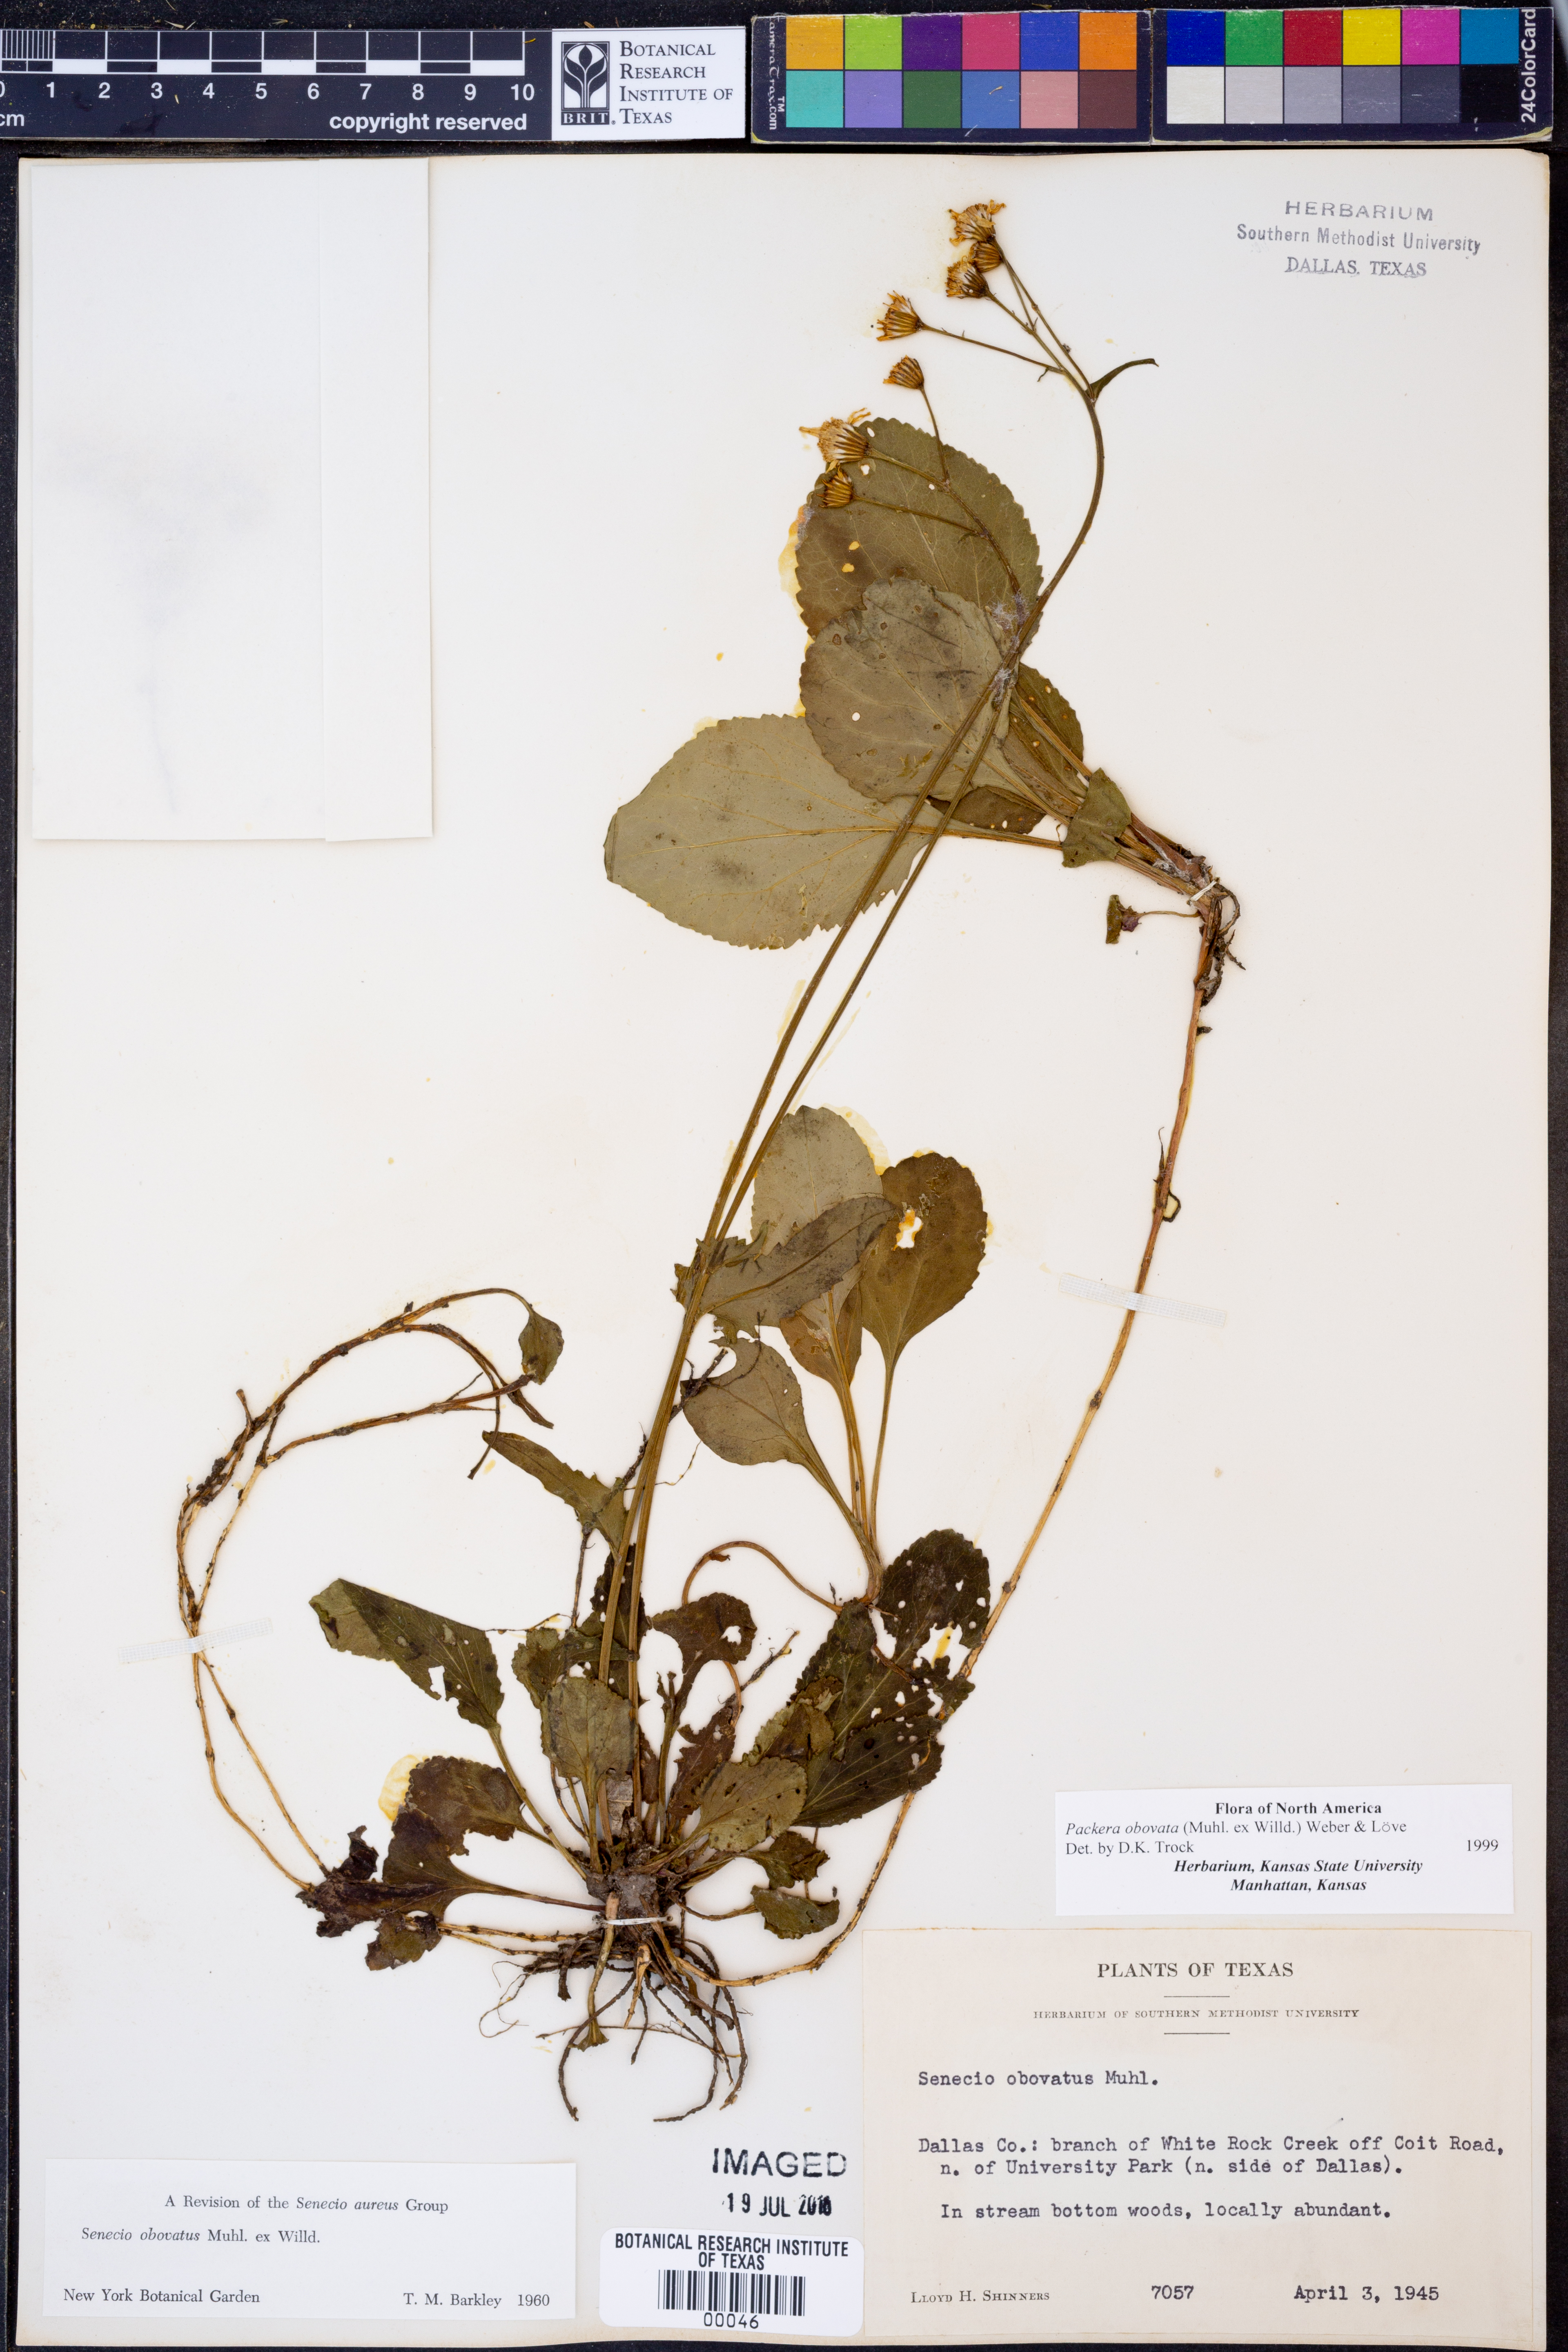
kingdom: Plantae
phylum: Tracheophyta
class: Magnoliopsida
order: Asterales
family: Asteraceae
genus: Packera
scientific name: Packera obovata
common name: Round-leaf ragwort
